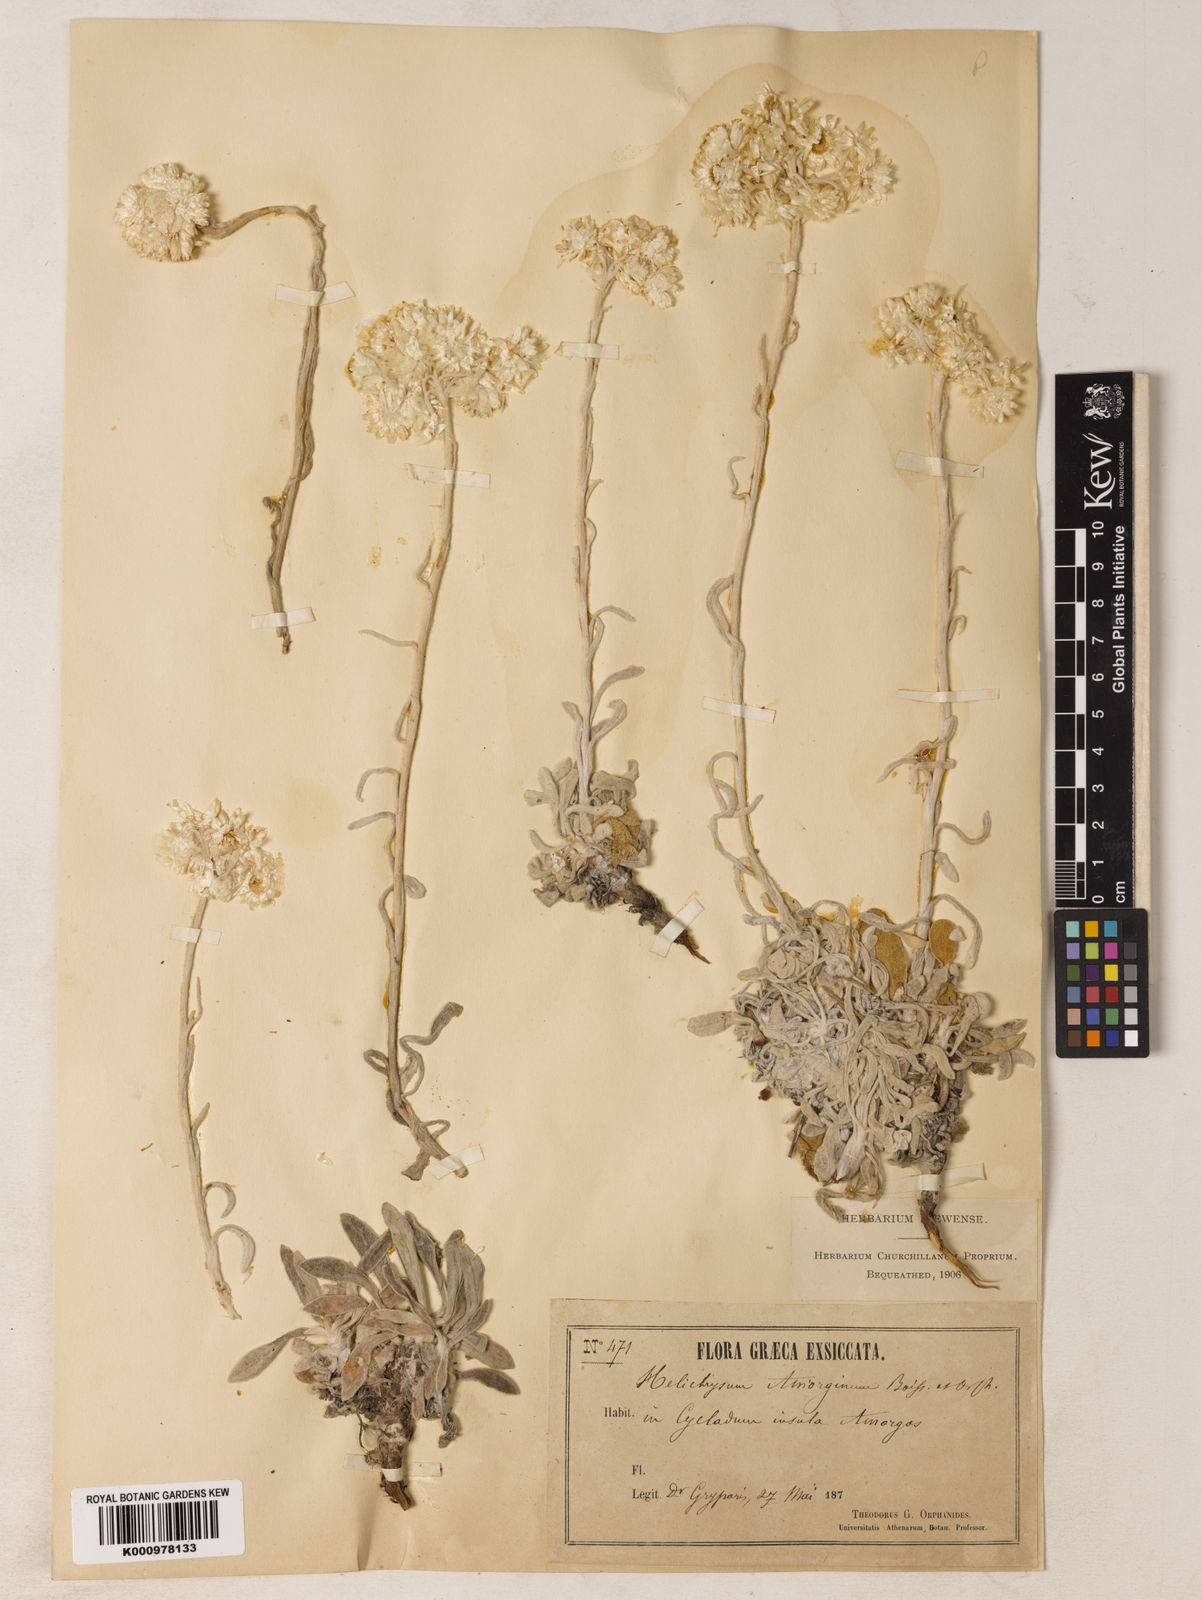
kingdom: Plantae
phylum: Tracheophyta
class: Magnoliopsida
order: Asterales
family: Asteraceae
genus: Helichrysum
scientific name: Helichrysum amorginum
